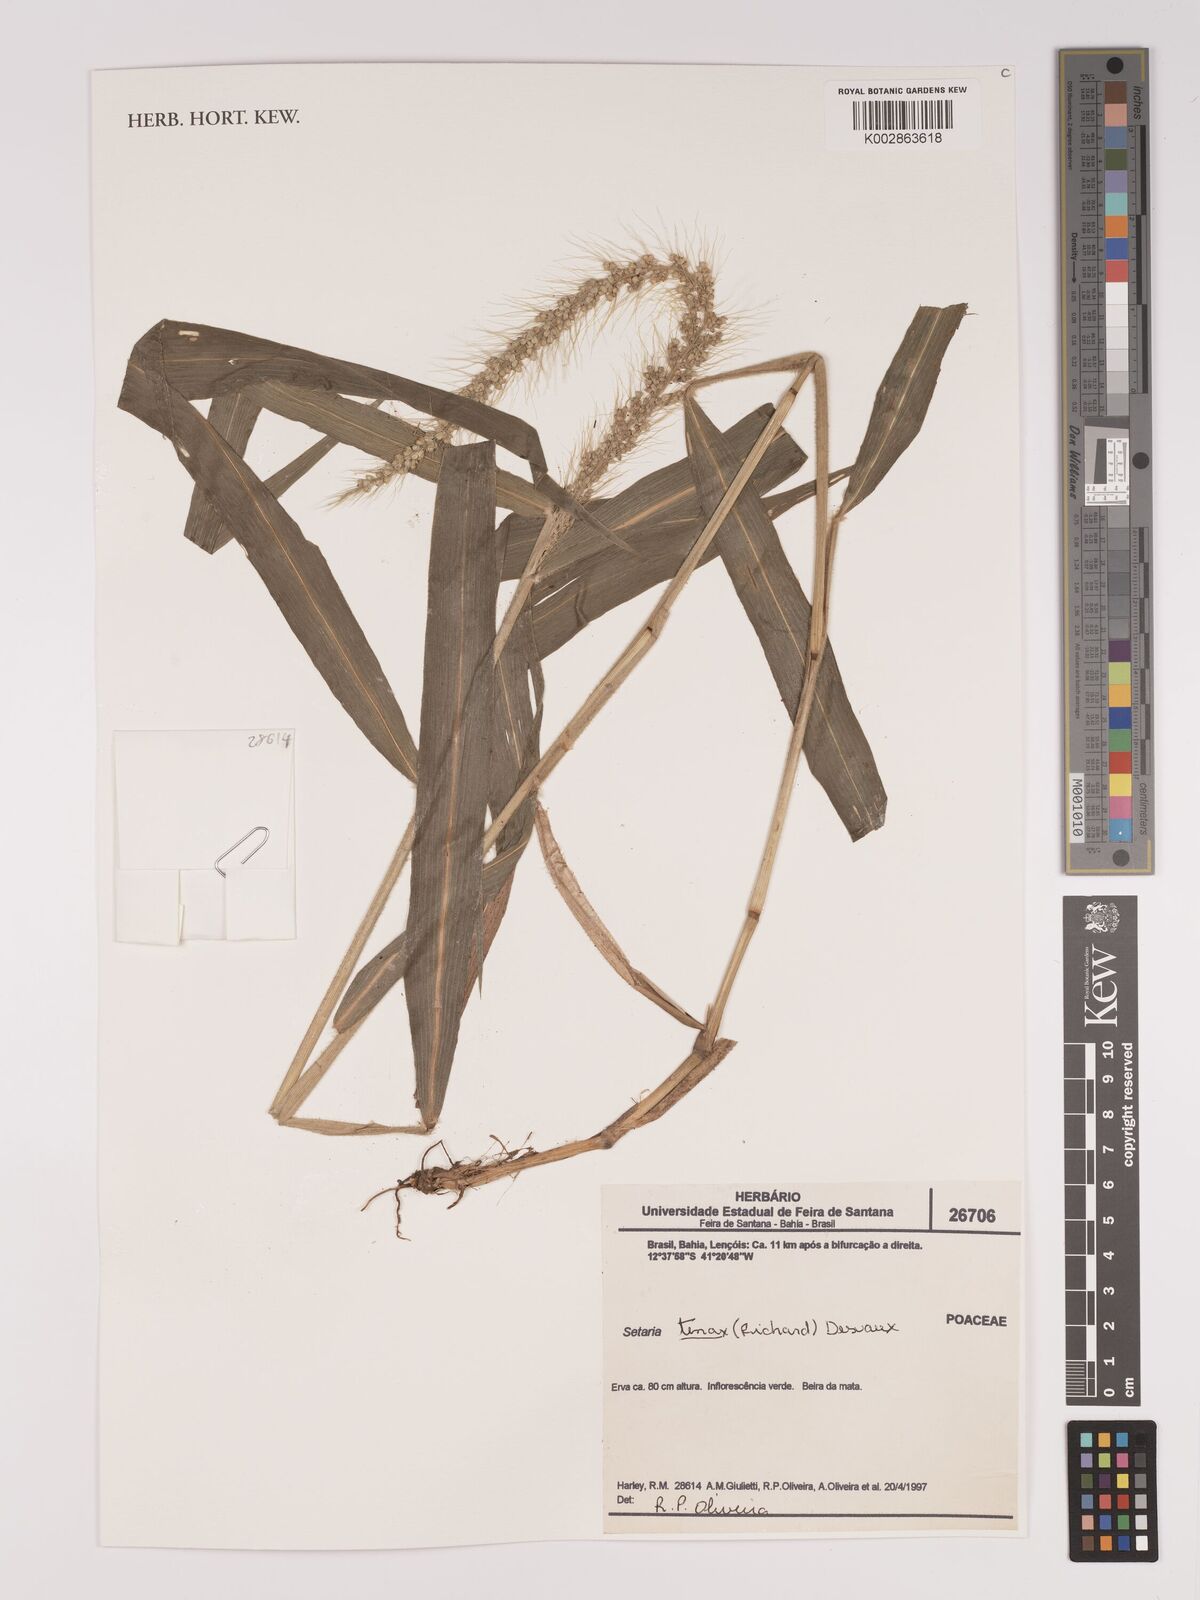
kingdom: Plantae
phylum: Tracheophyta
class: Liliopsida
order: Poales
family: Poaceae
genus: Setaria
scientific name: Setaria tenax
